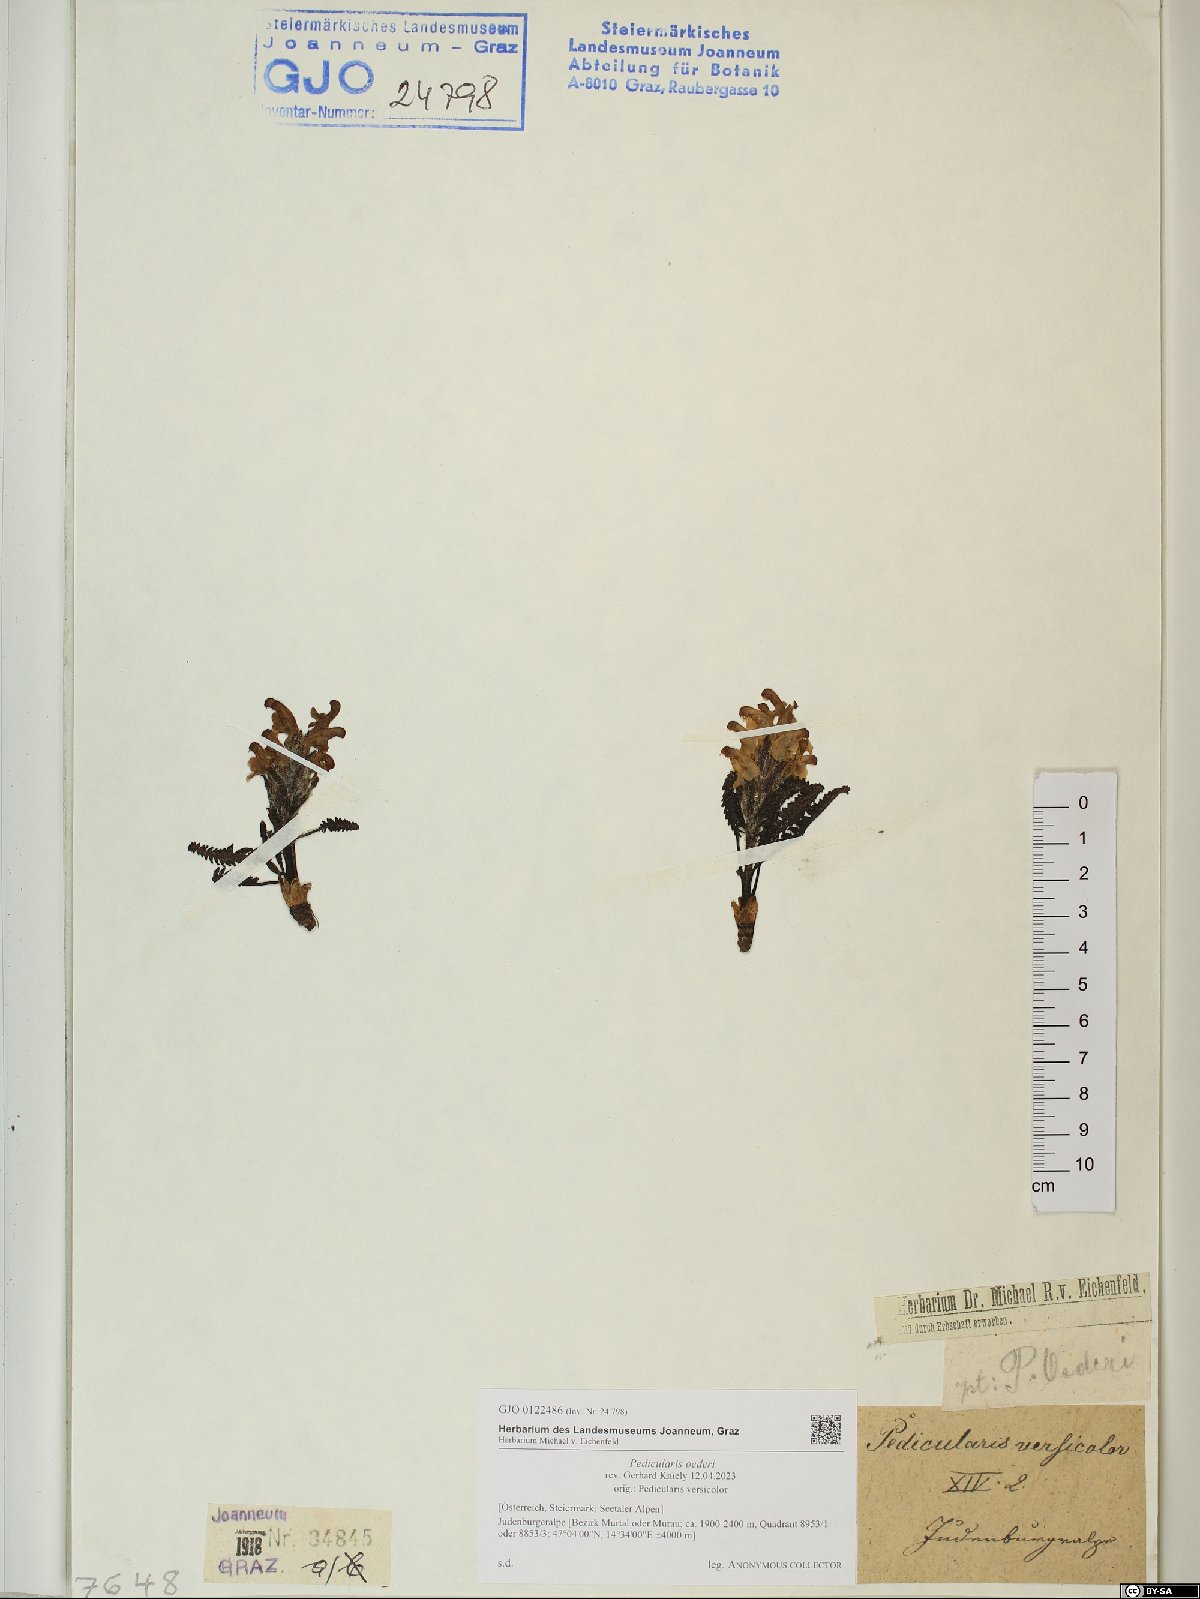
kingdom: Plantae
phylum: Tracheophyta
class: Magnoliopsida
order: Lamiales
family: Orobanchaceae
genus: Pedicularis
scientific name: Pedicularis oederi
